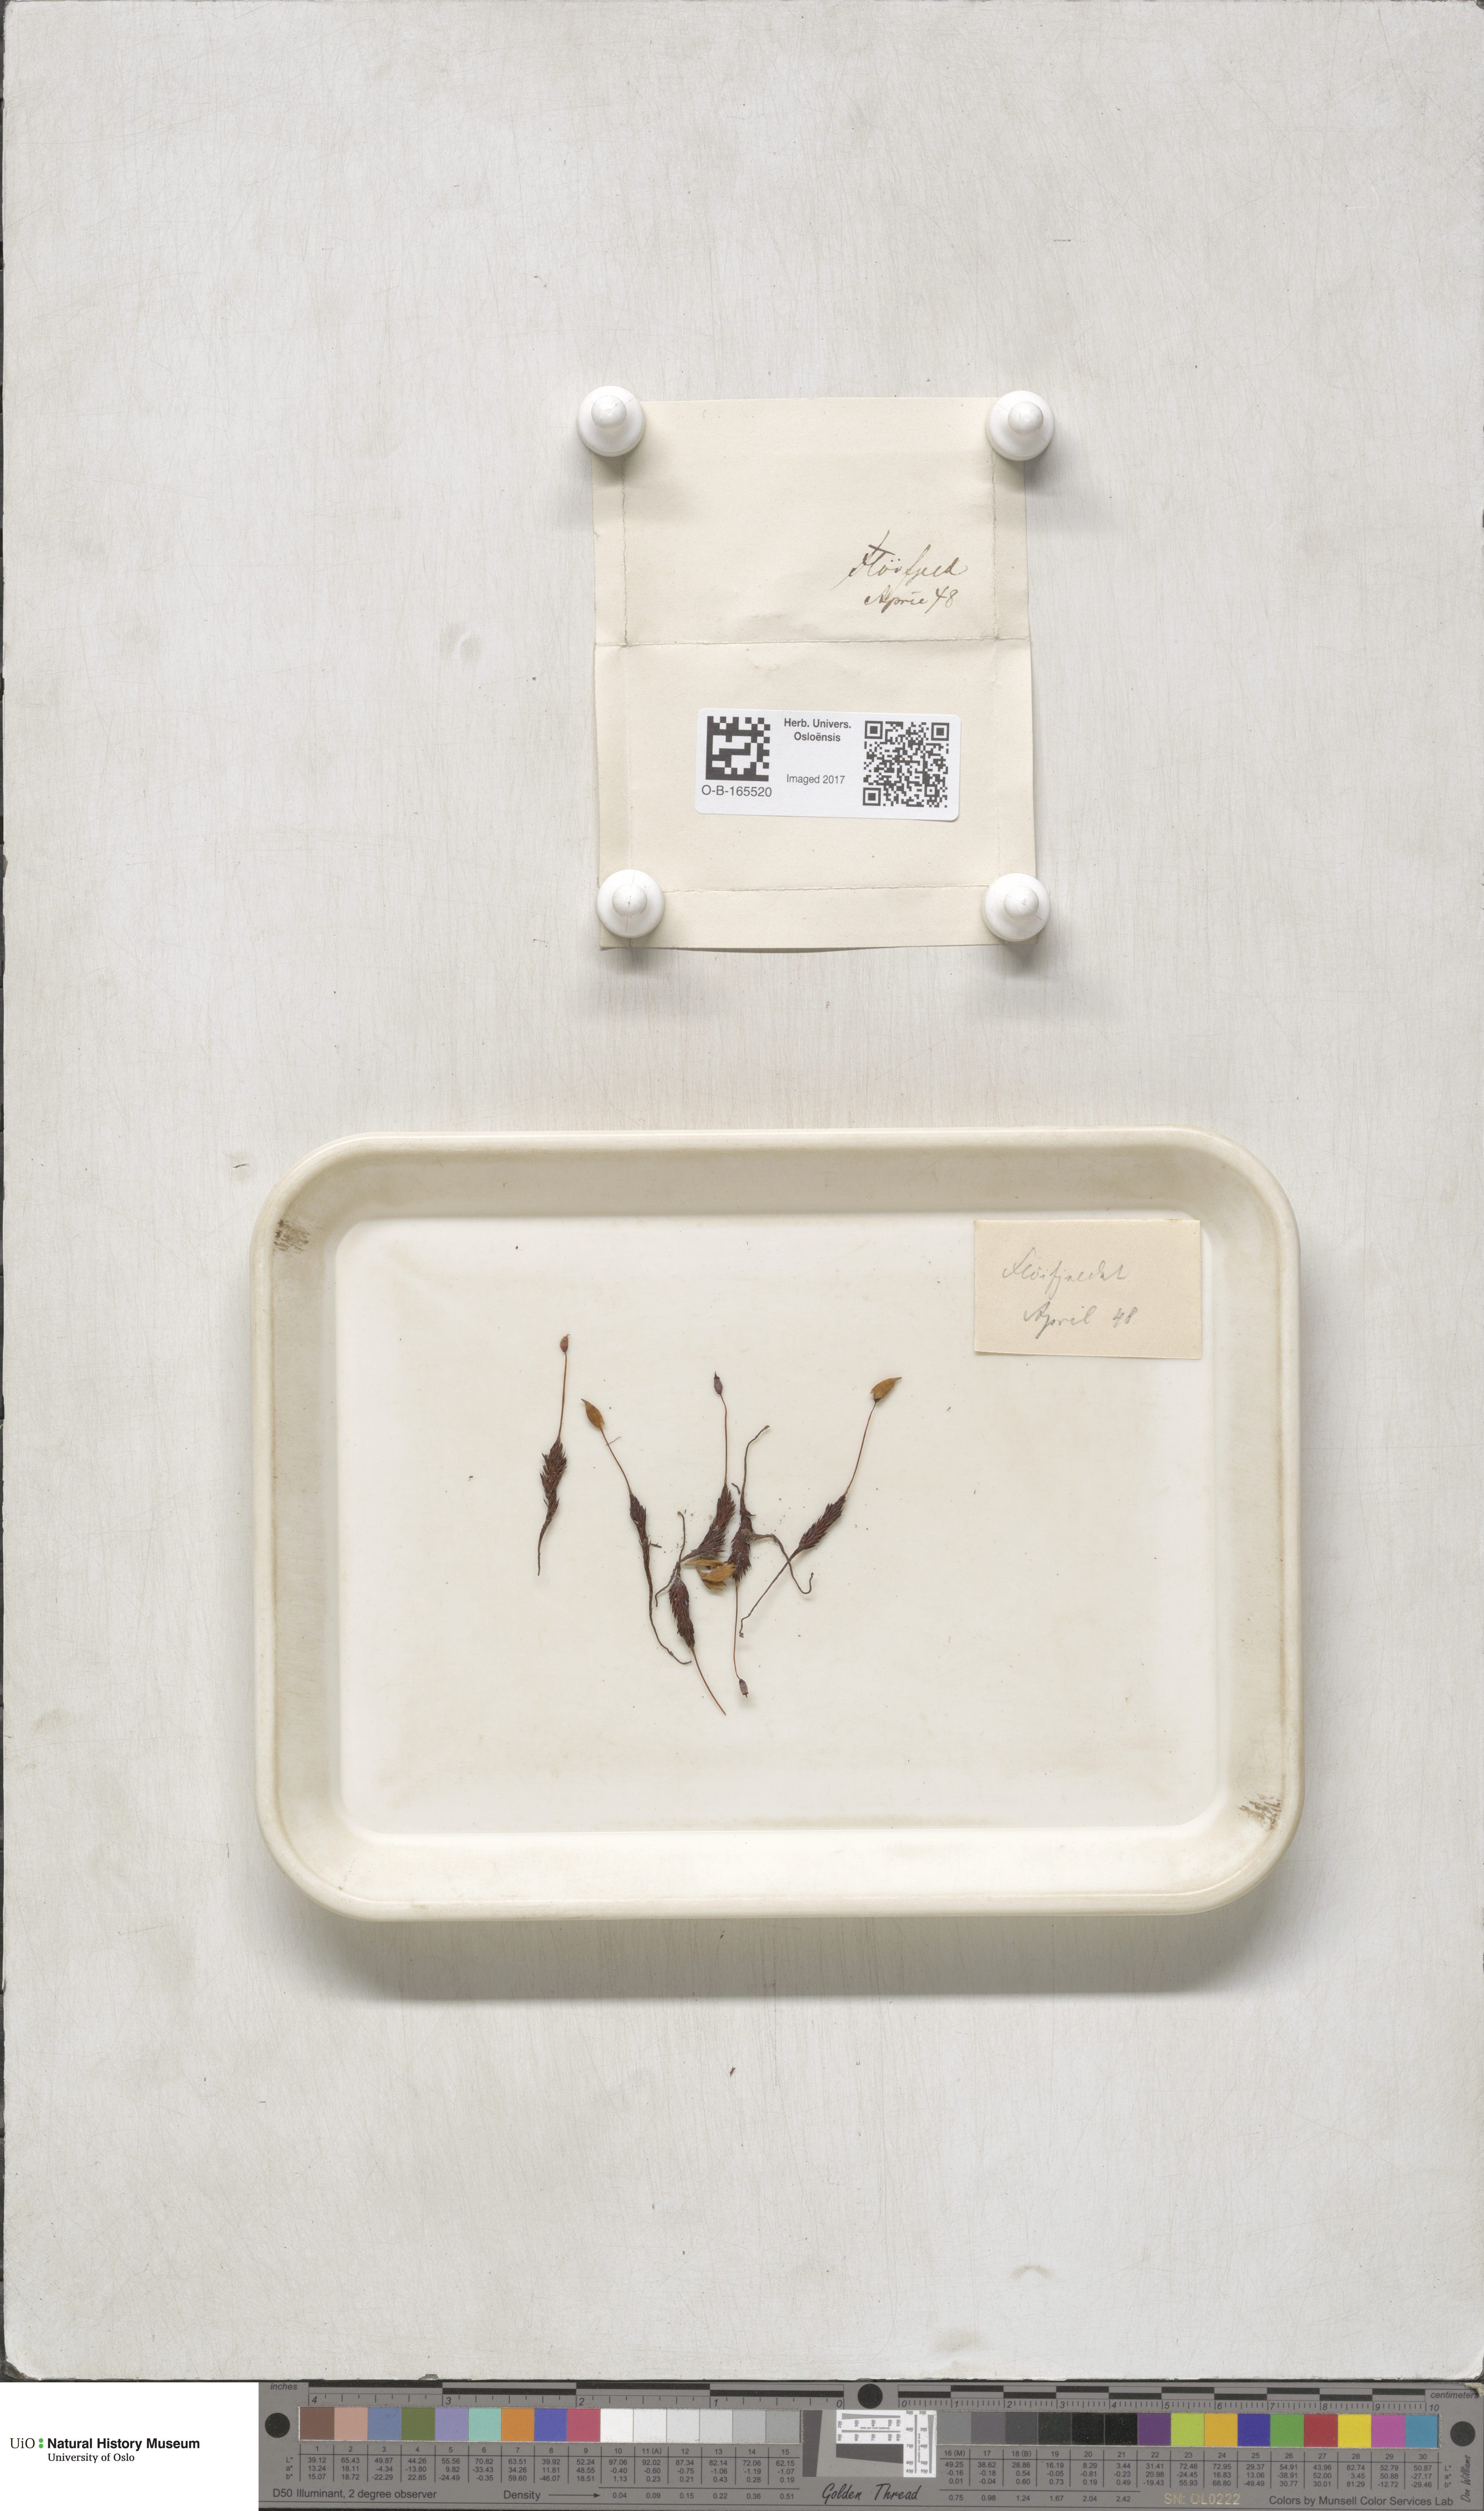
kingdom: Plantae
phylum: Bryophyta
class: Polytrichopsida
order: Polytrichales
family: Polytrichaceae
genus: Polytrichastrum
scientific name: Polytrichastrum sexangulare
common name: Northern haircap
